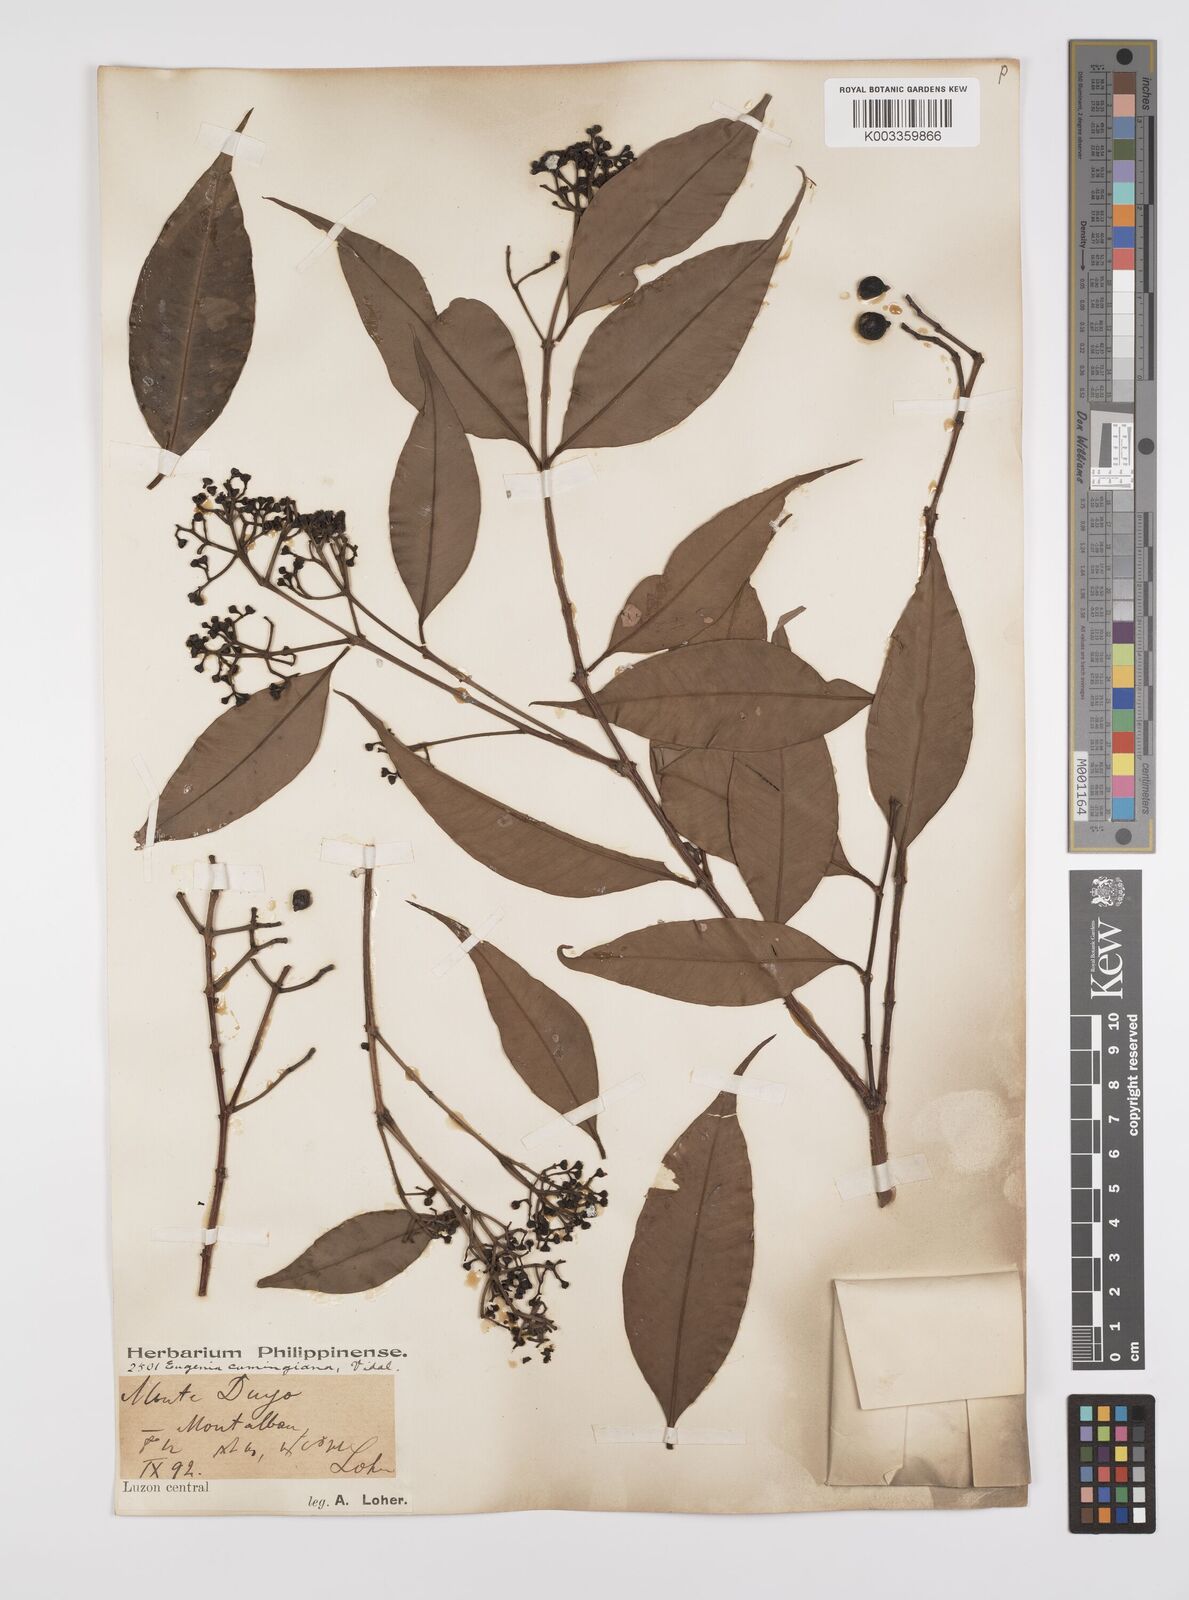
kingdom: Plantae
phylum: Tracheophyta
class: Magnoliopsida
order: Myrtales
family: Myrtaceae
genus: Syzygium
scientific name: Syzygium acuminatissimum
